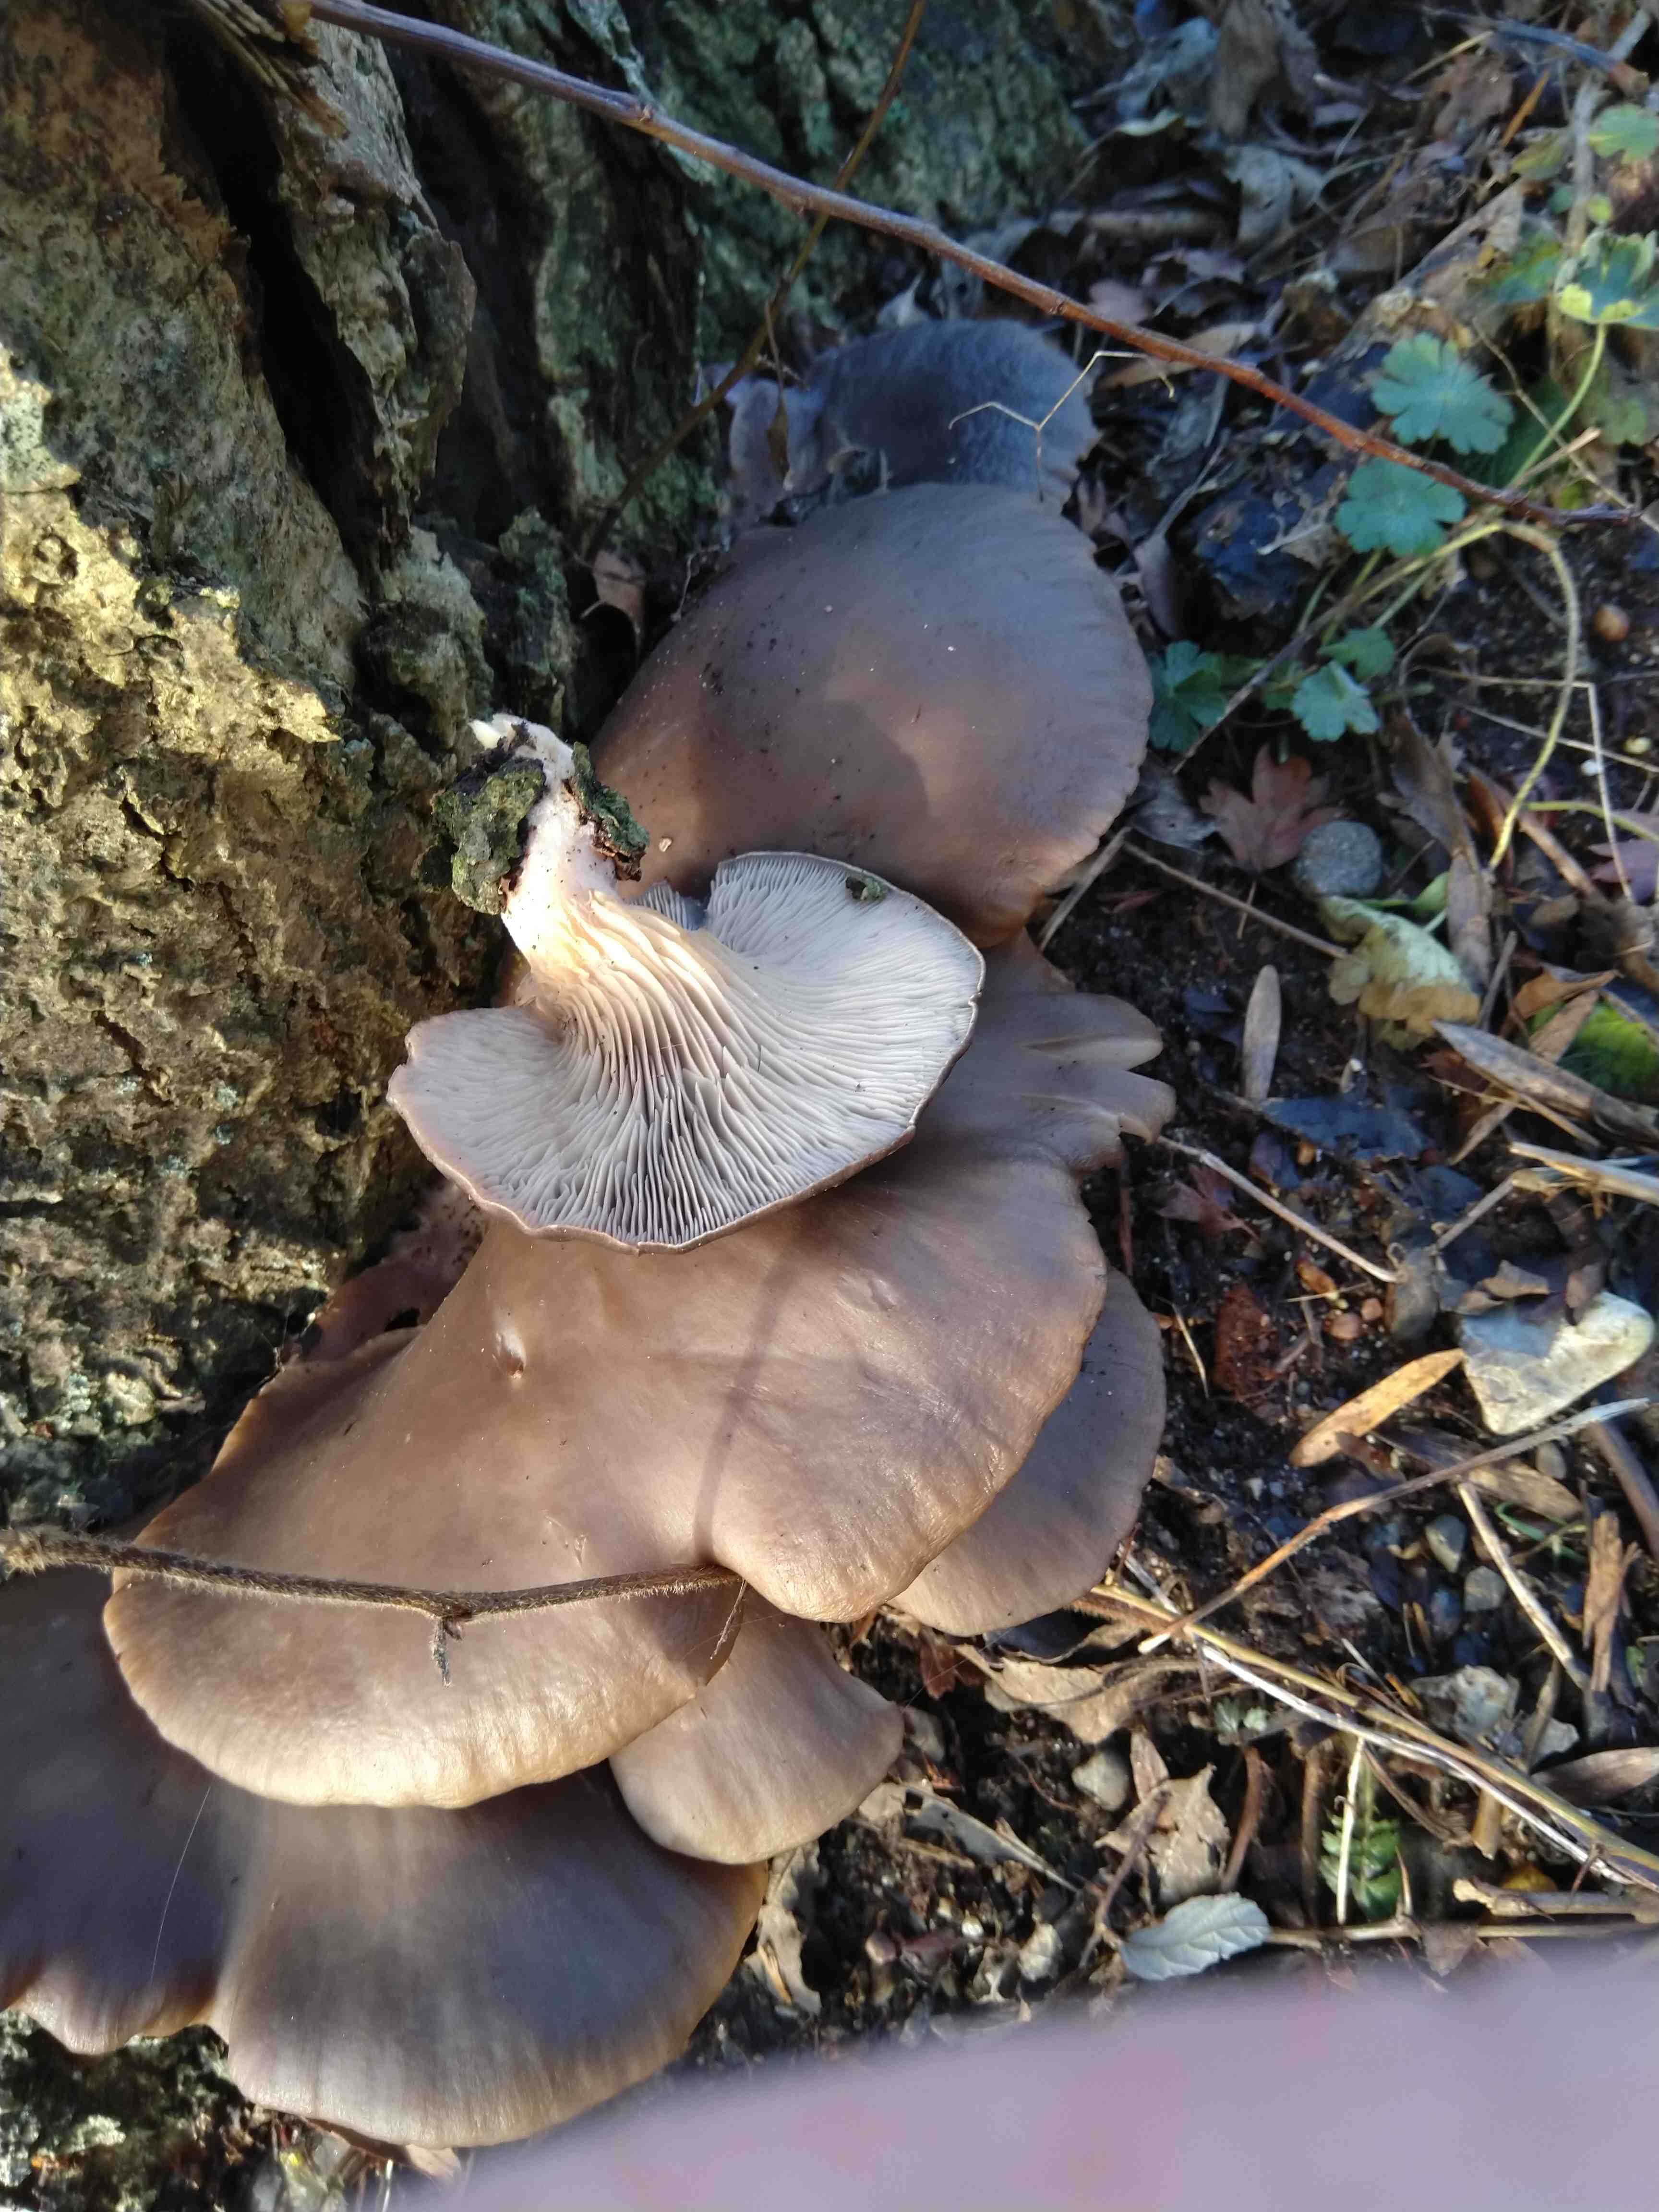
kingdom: Fungi
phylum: Basidiomycota
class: Agaricomycetes
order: Agaricales
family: Pleurotaceae
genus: Pleurotus
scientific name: Pleurotus ostreatus
